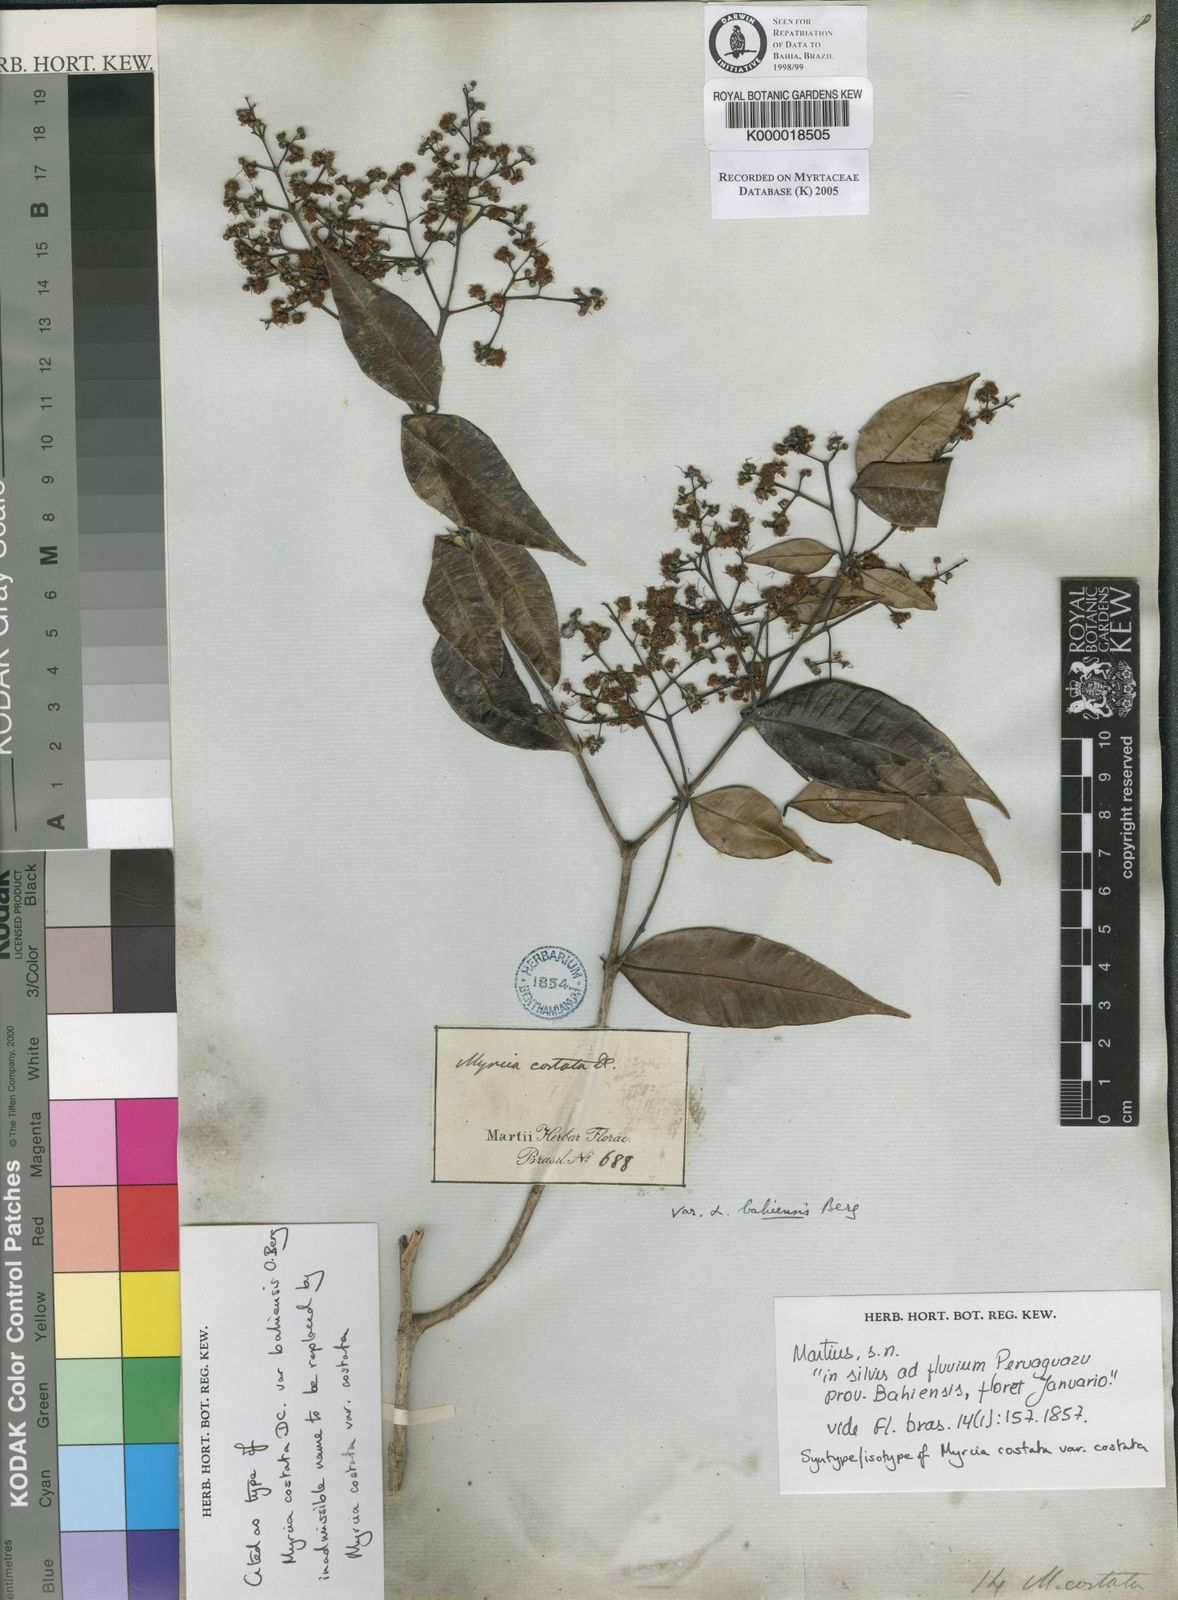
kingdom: Plantae
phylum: Tracheophyta
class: Magnoliopsida
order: Myrtales
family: Myrtaceae
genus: Myrcia
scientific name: Myrcia splendens
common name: Surinam cherry
